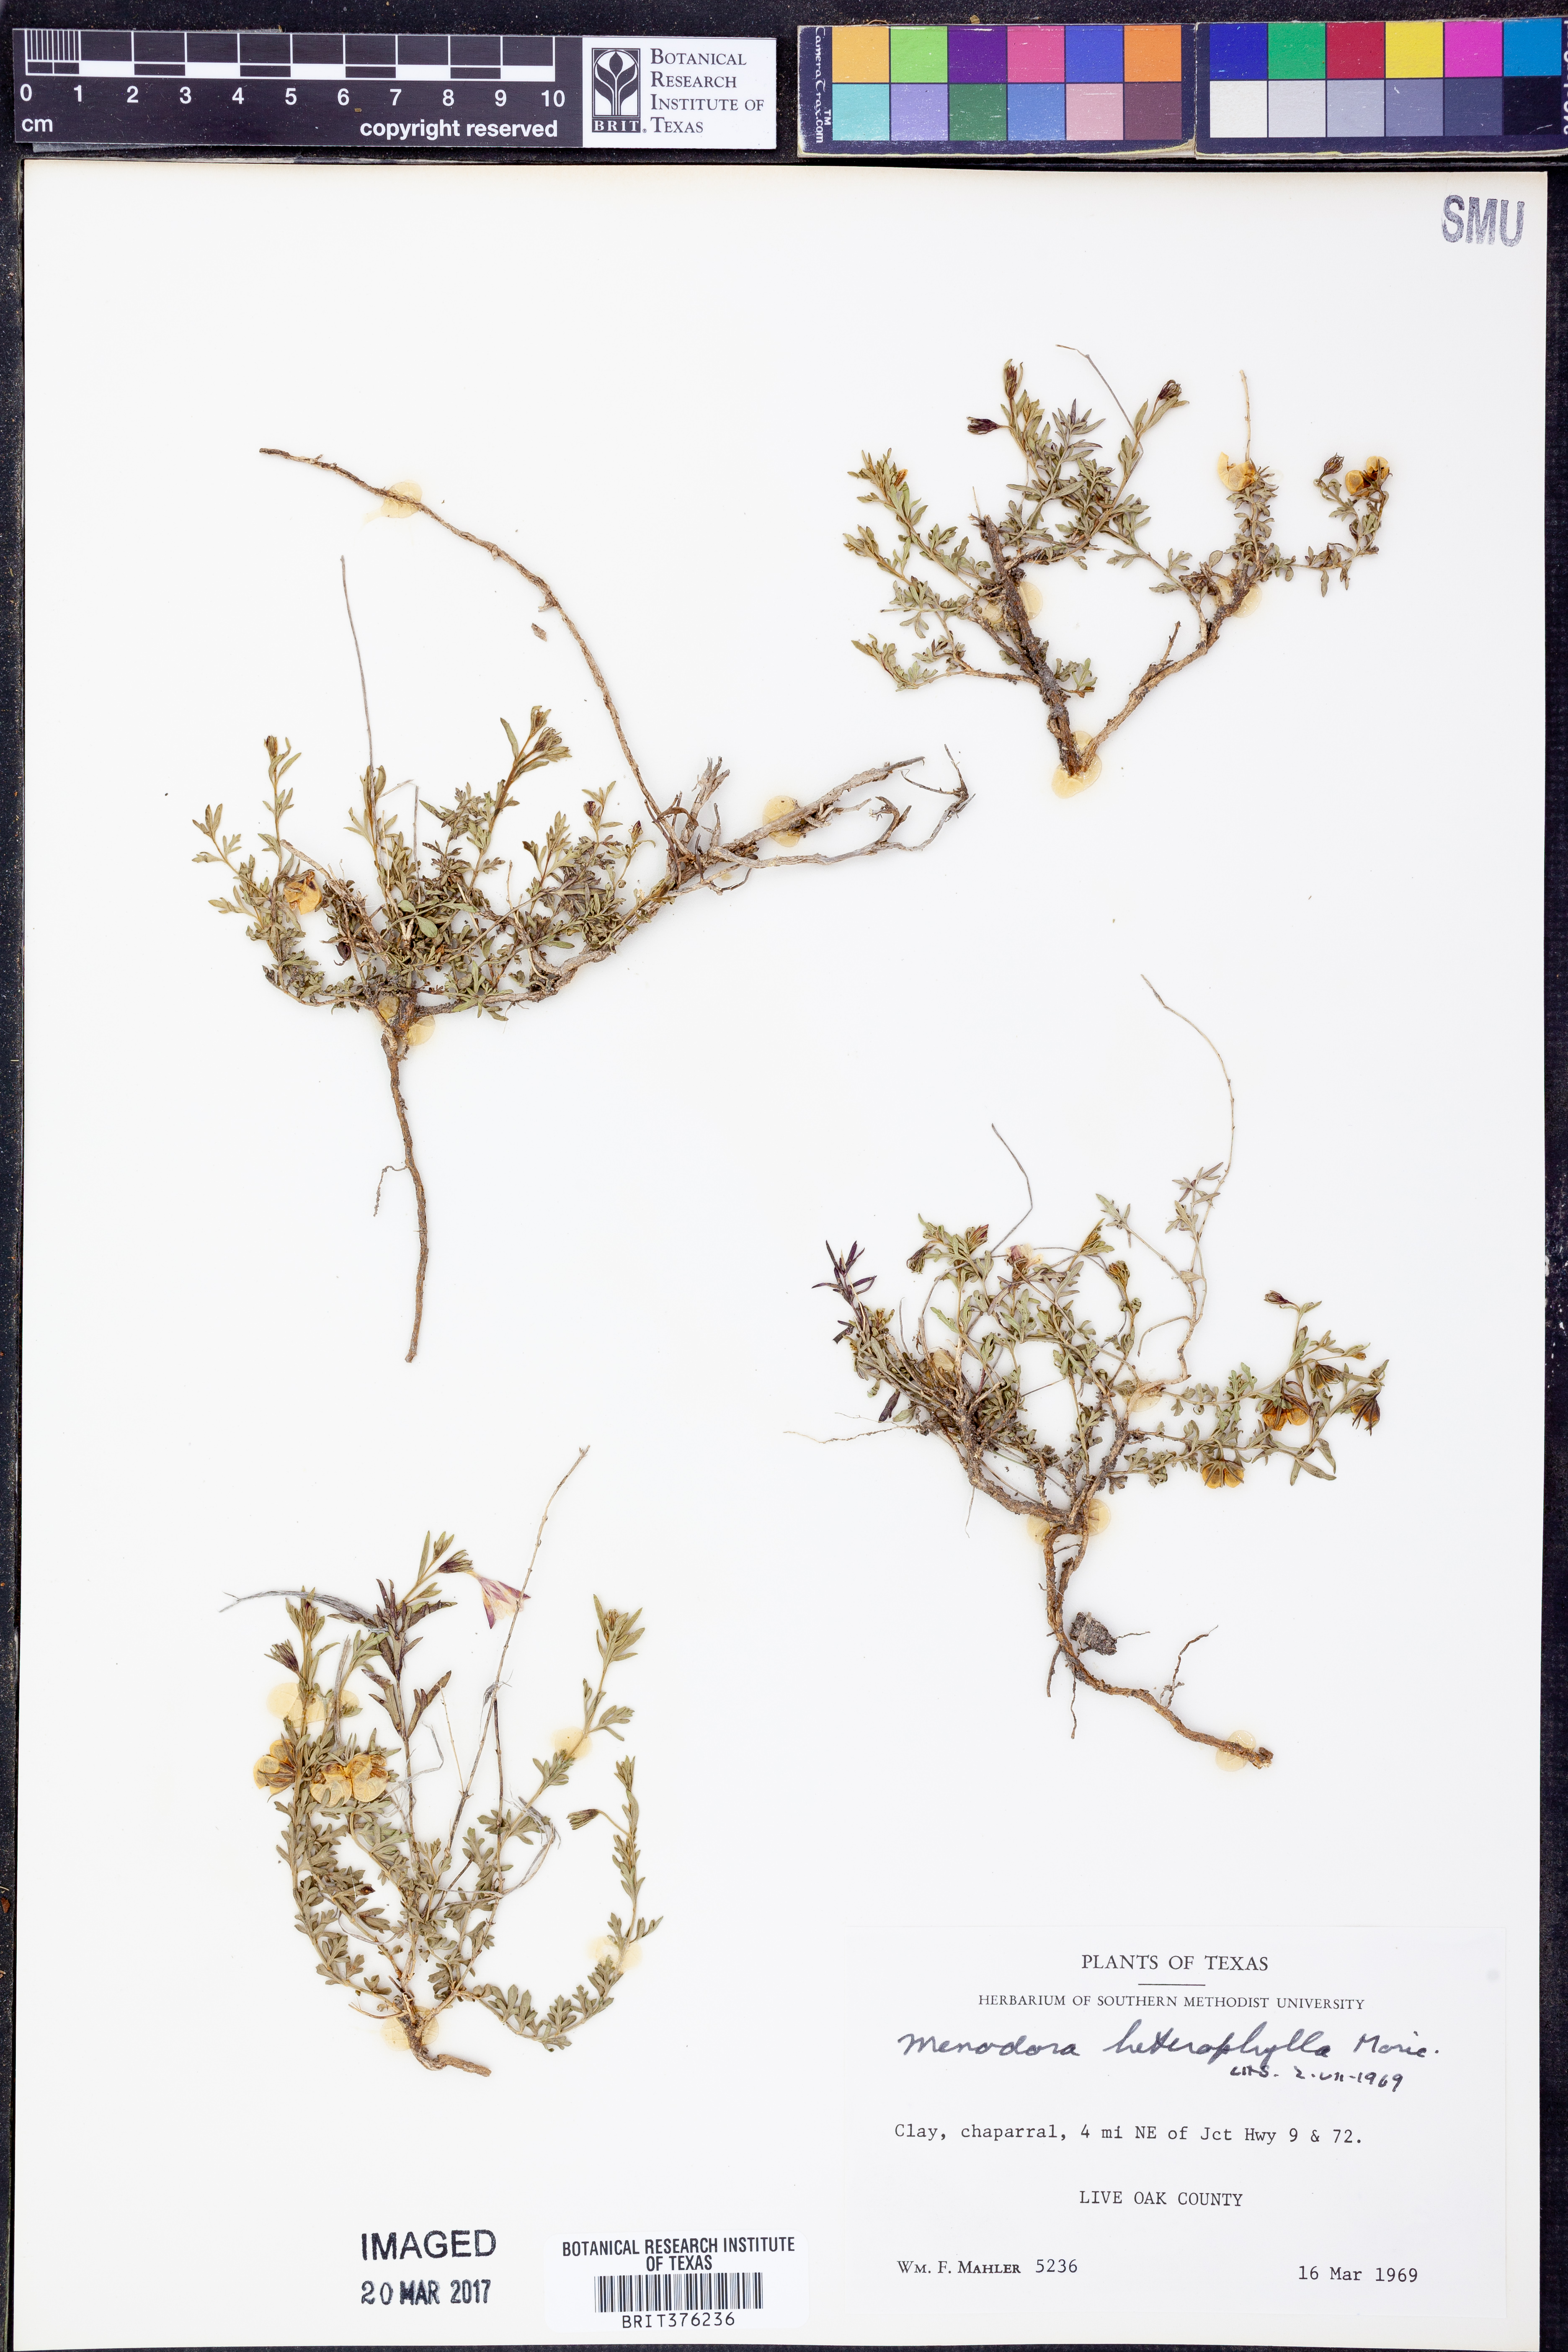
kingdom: Plantae
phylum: Tracheophyta
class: Magnoliopsida
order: Lamiales
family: Oleaceae
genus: Menodora
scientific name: Menodora heterophylla
